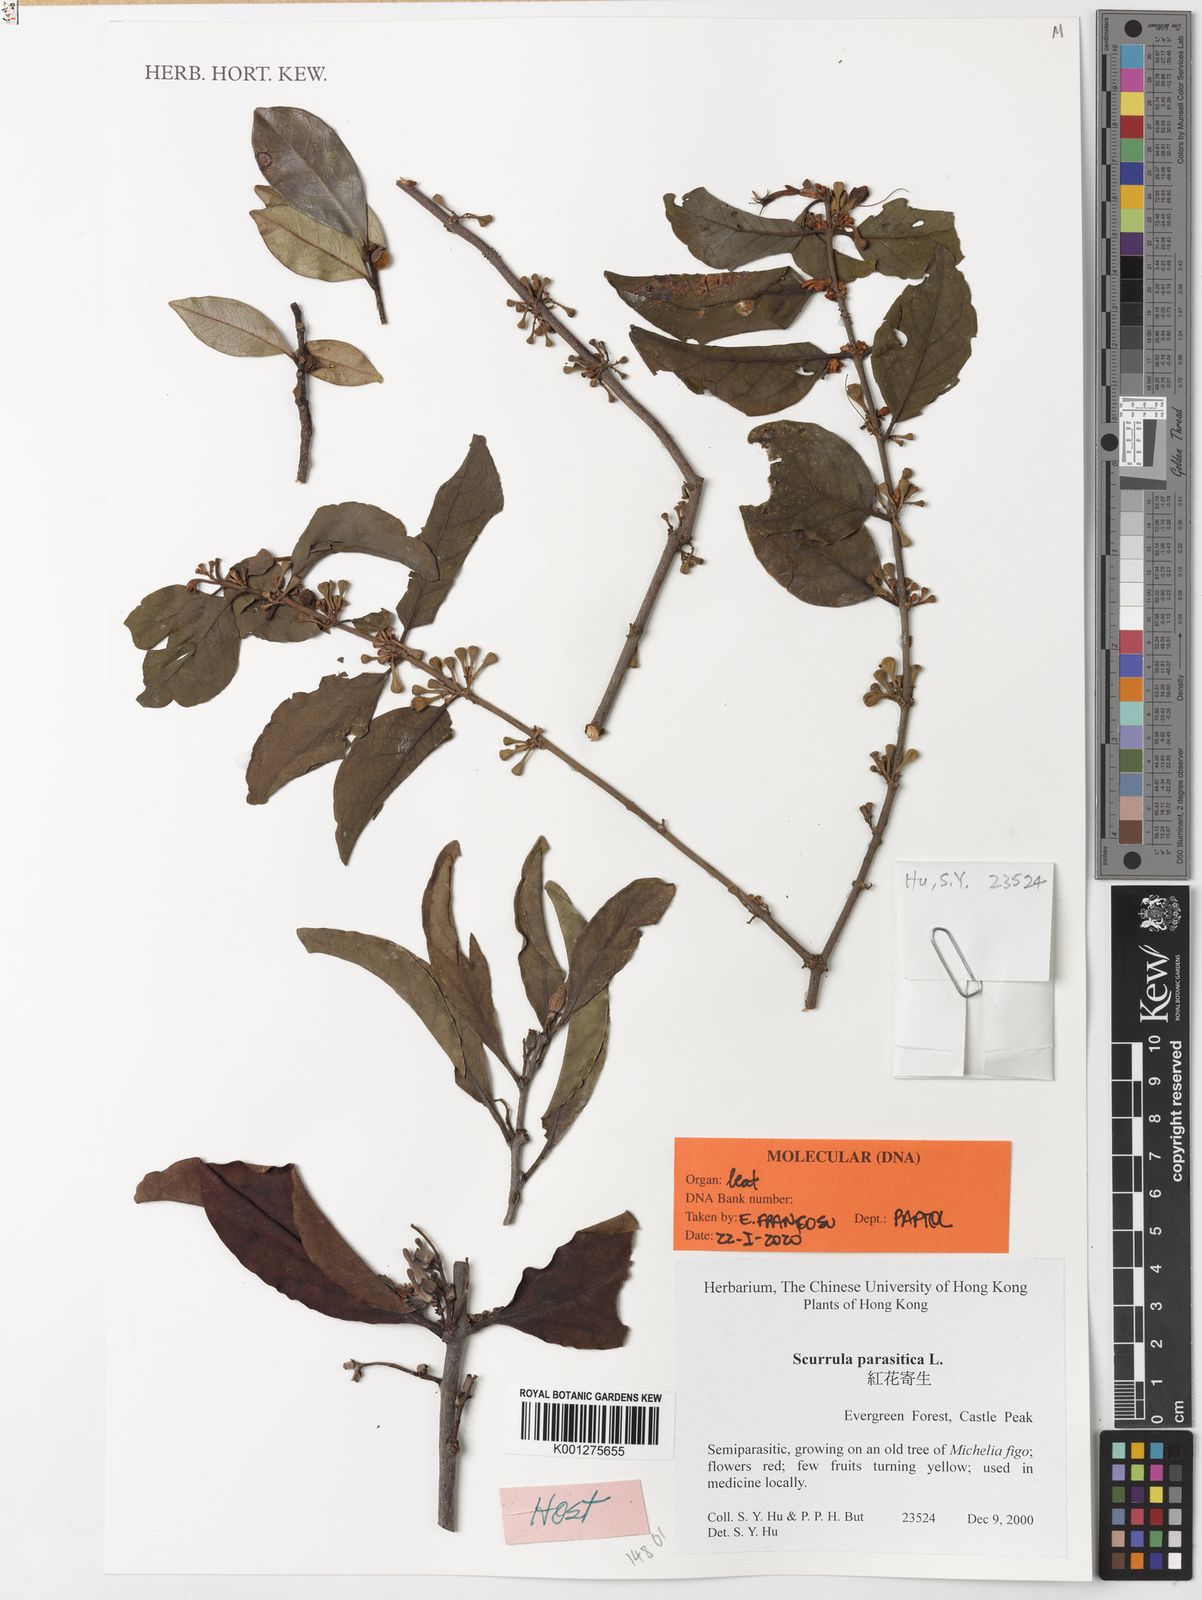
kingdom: Plantae
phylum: Tracheophyta
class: Magnoliopsida
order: Santalales
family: Loranthaceae
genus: Scurrula
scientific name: Scurrula parasitica
